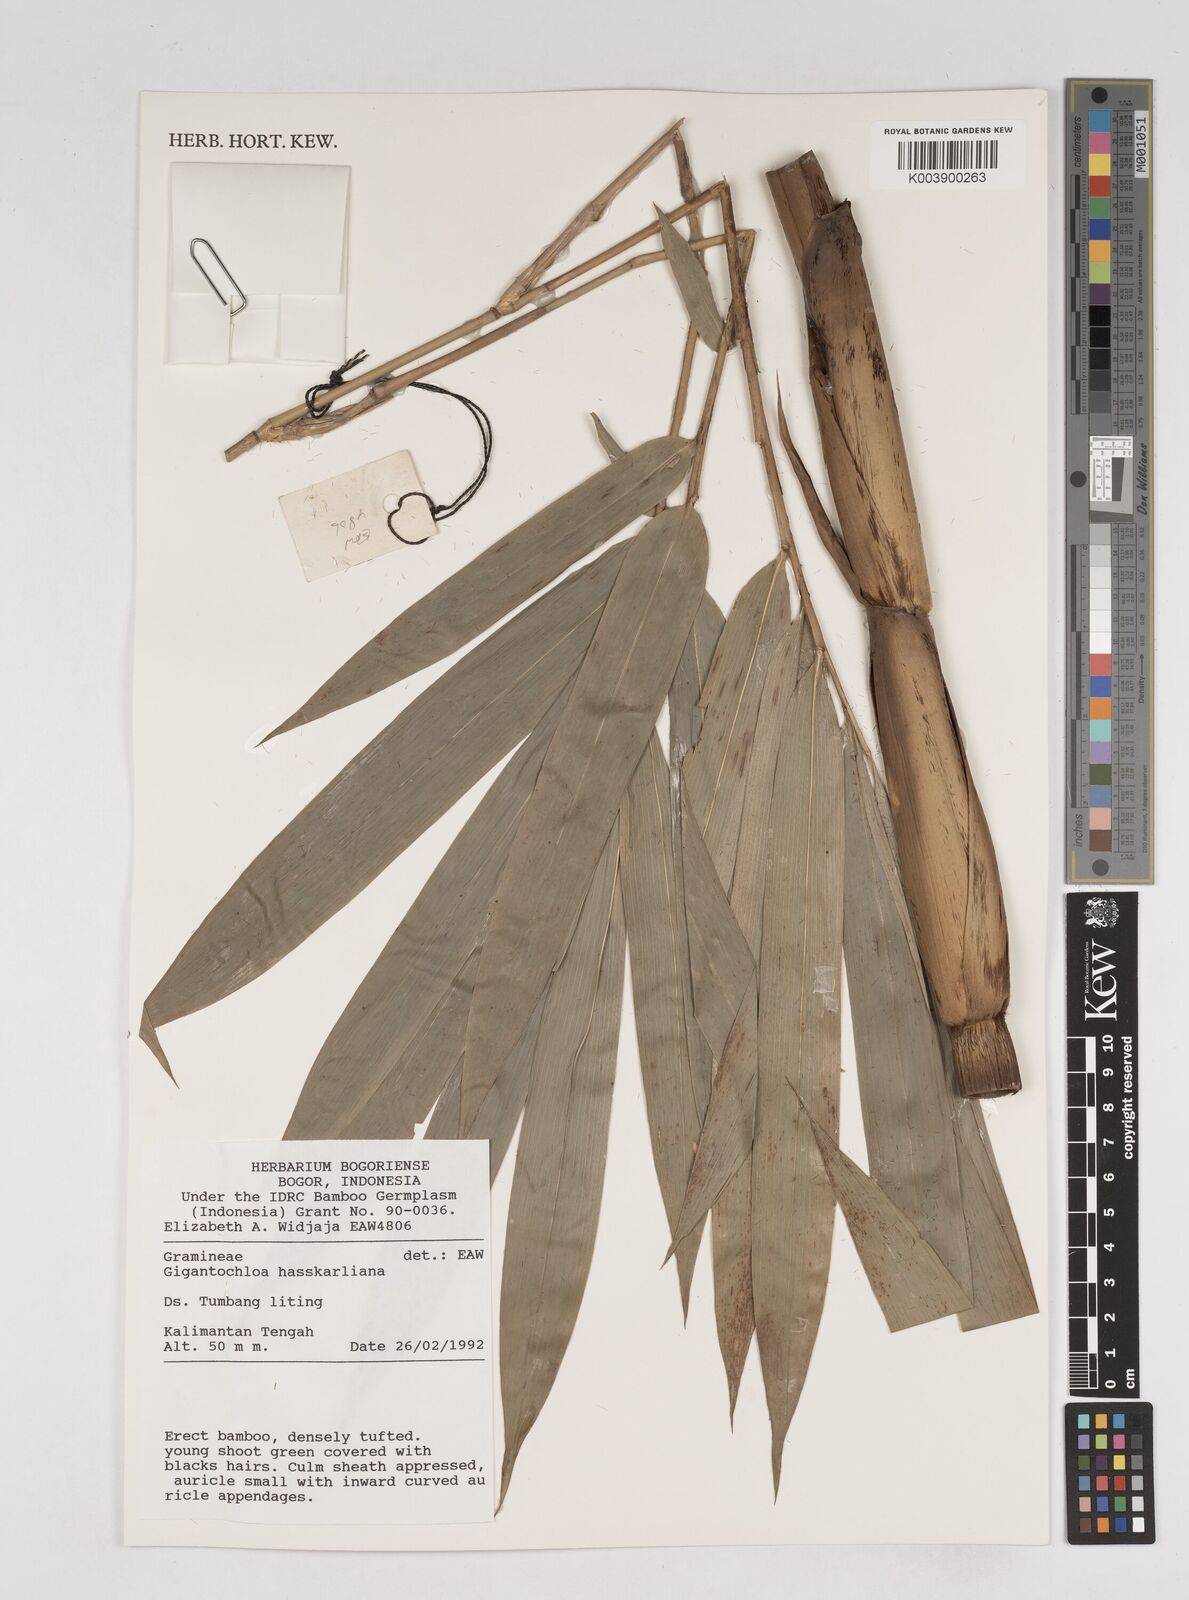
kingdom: Plantae
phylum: Tracheophyta
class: Liliopsida
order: Poales
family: Poaceae
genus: Gigantochloa
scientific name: Gigantochloa hasskarliana
